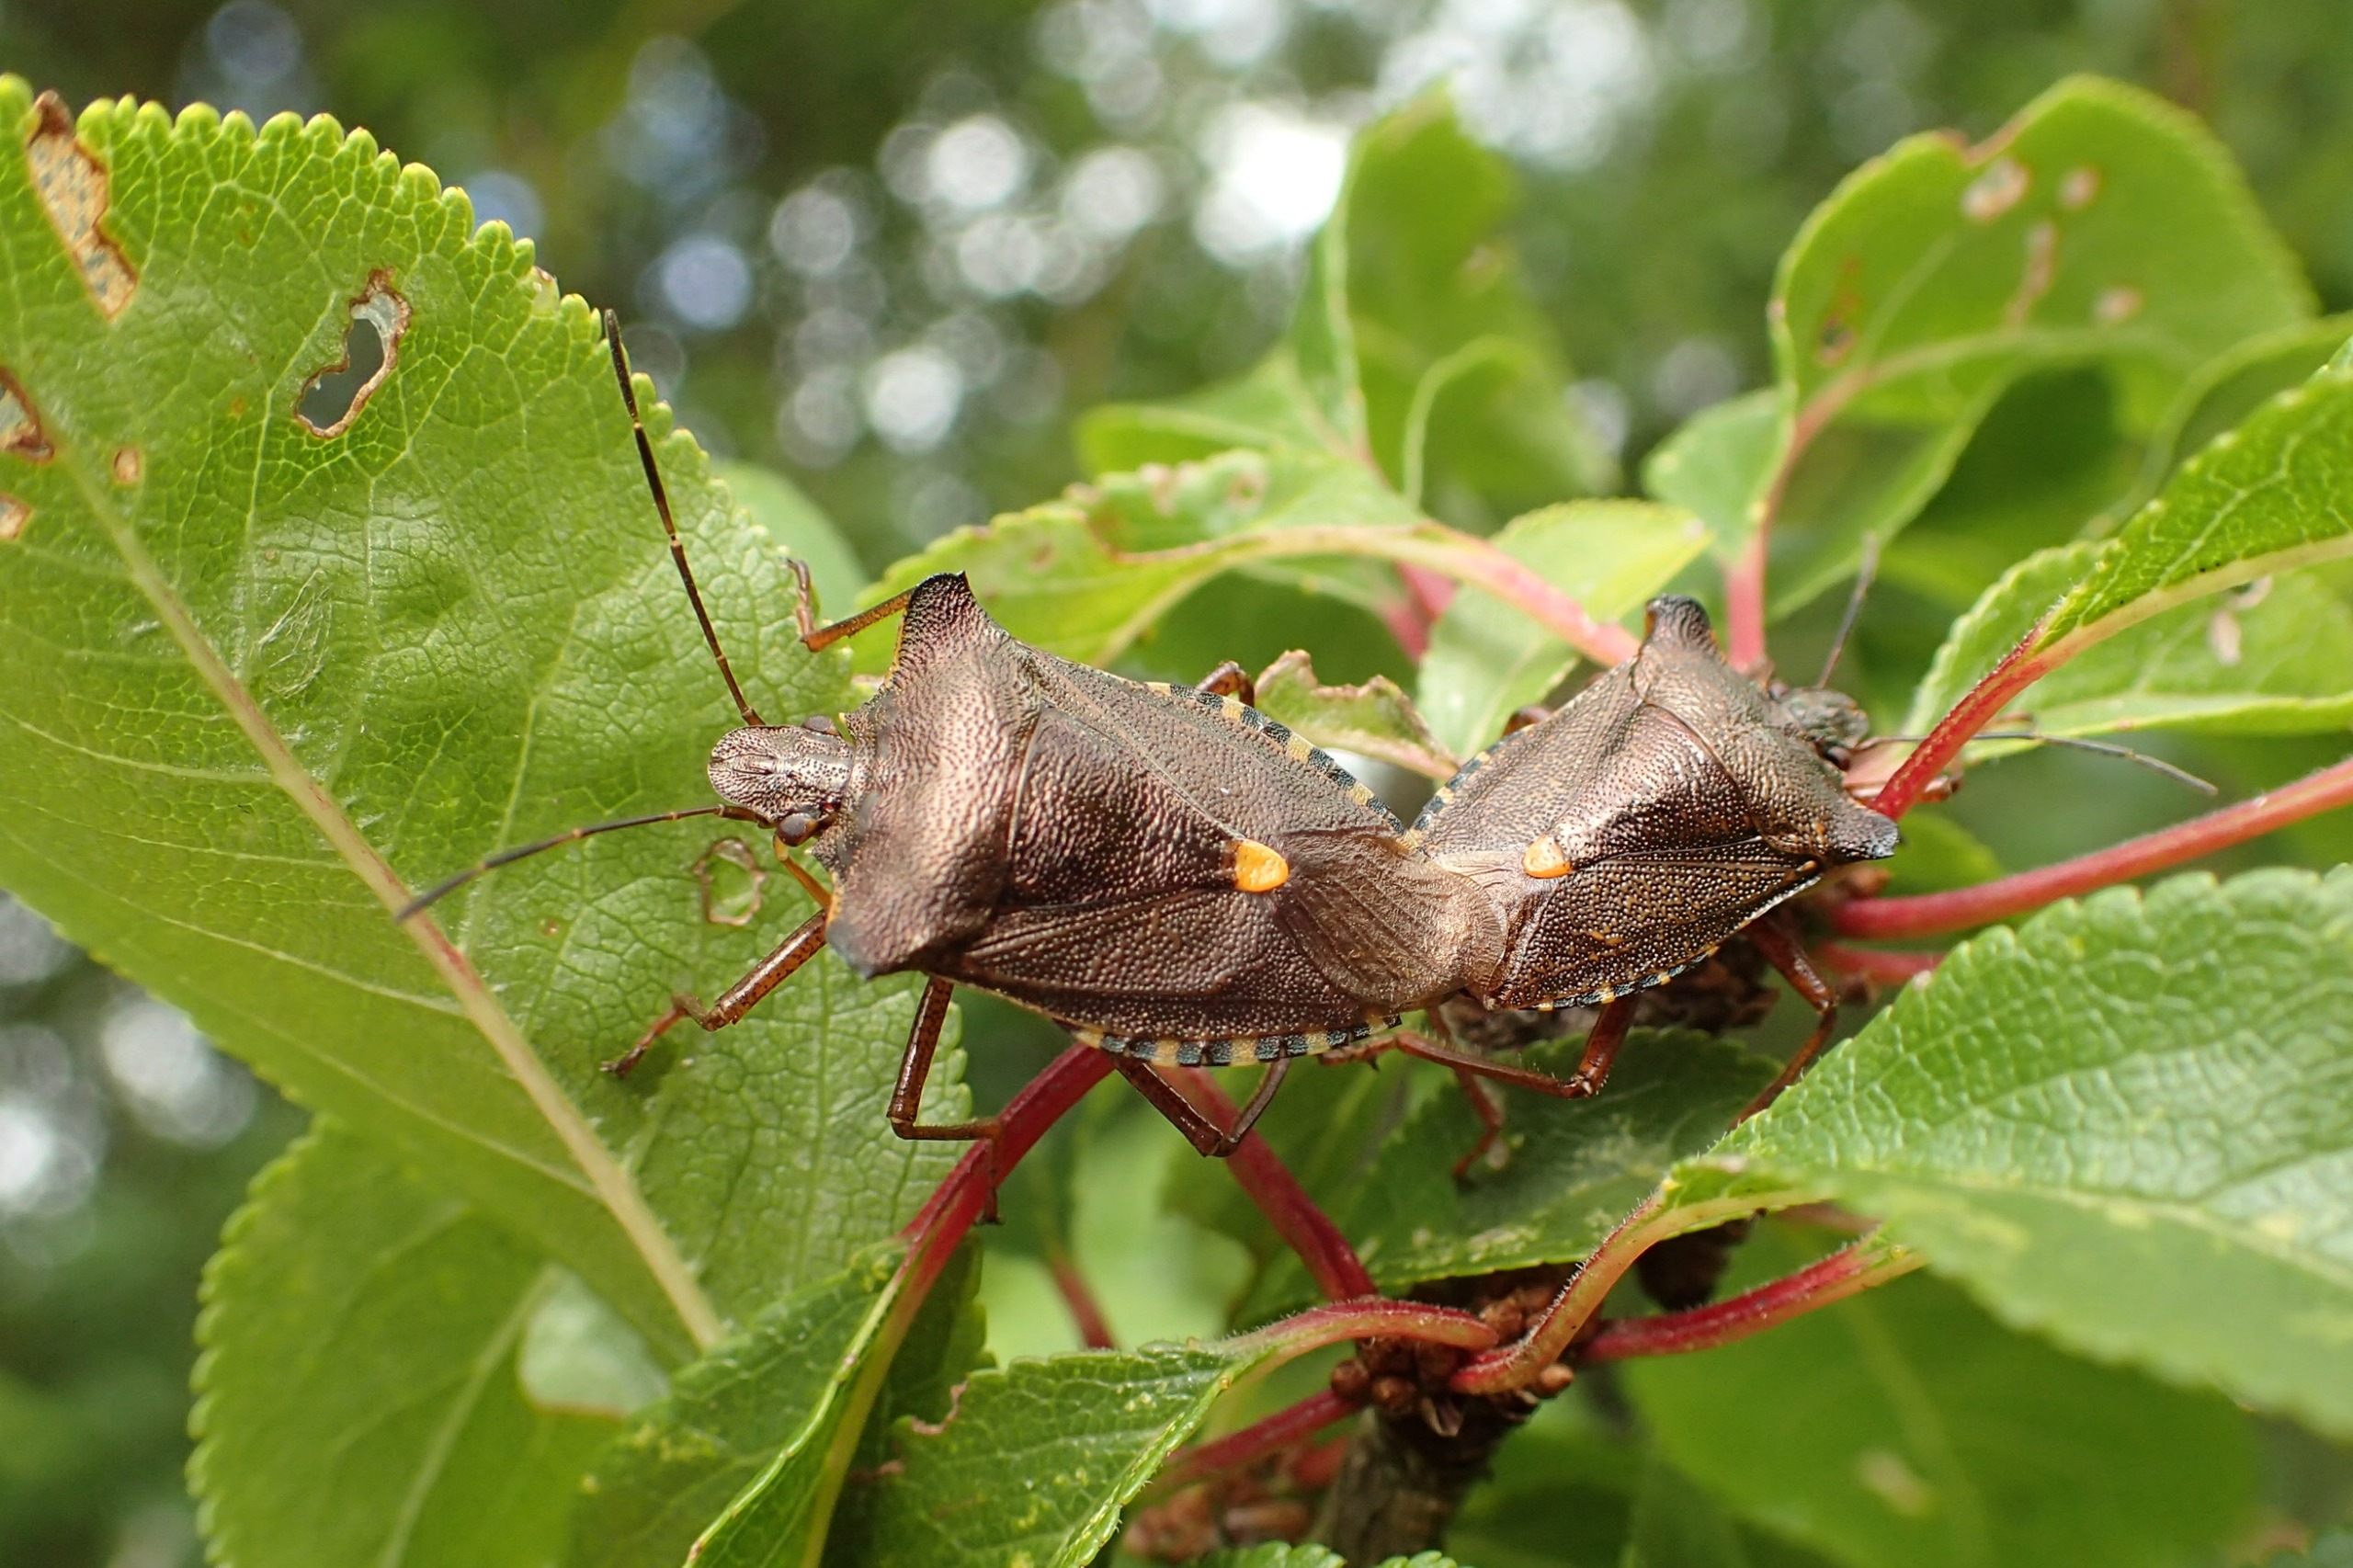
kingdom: Animalia
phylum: Arthropoda
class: Insecta
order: Hemiptera
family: Pentatomidae
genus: Pentatoma
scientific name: Pentatoma rufipes
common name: Rødbenet bredtæge
